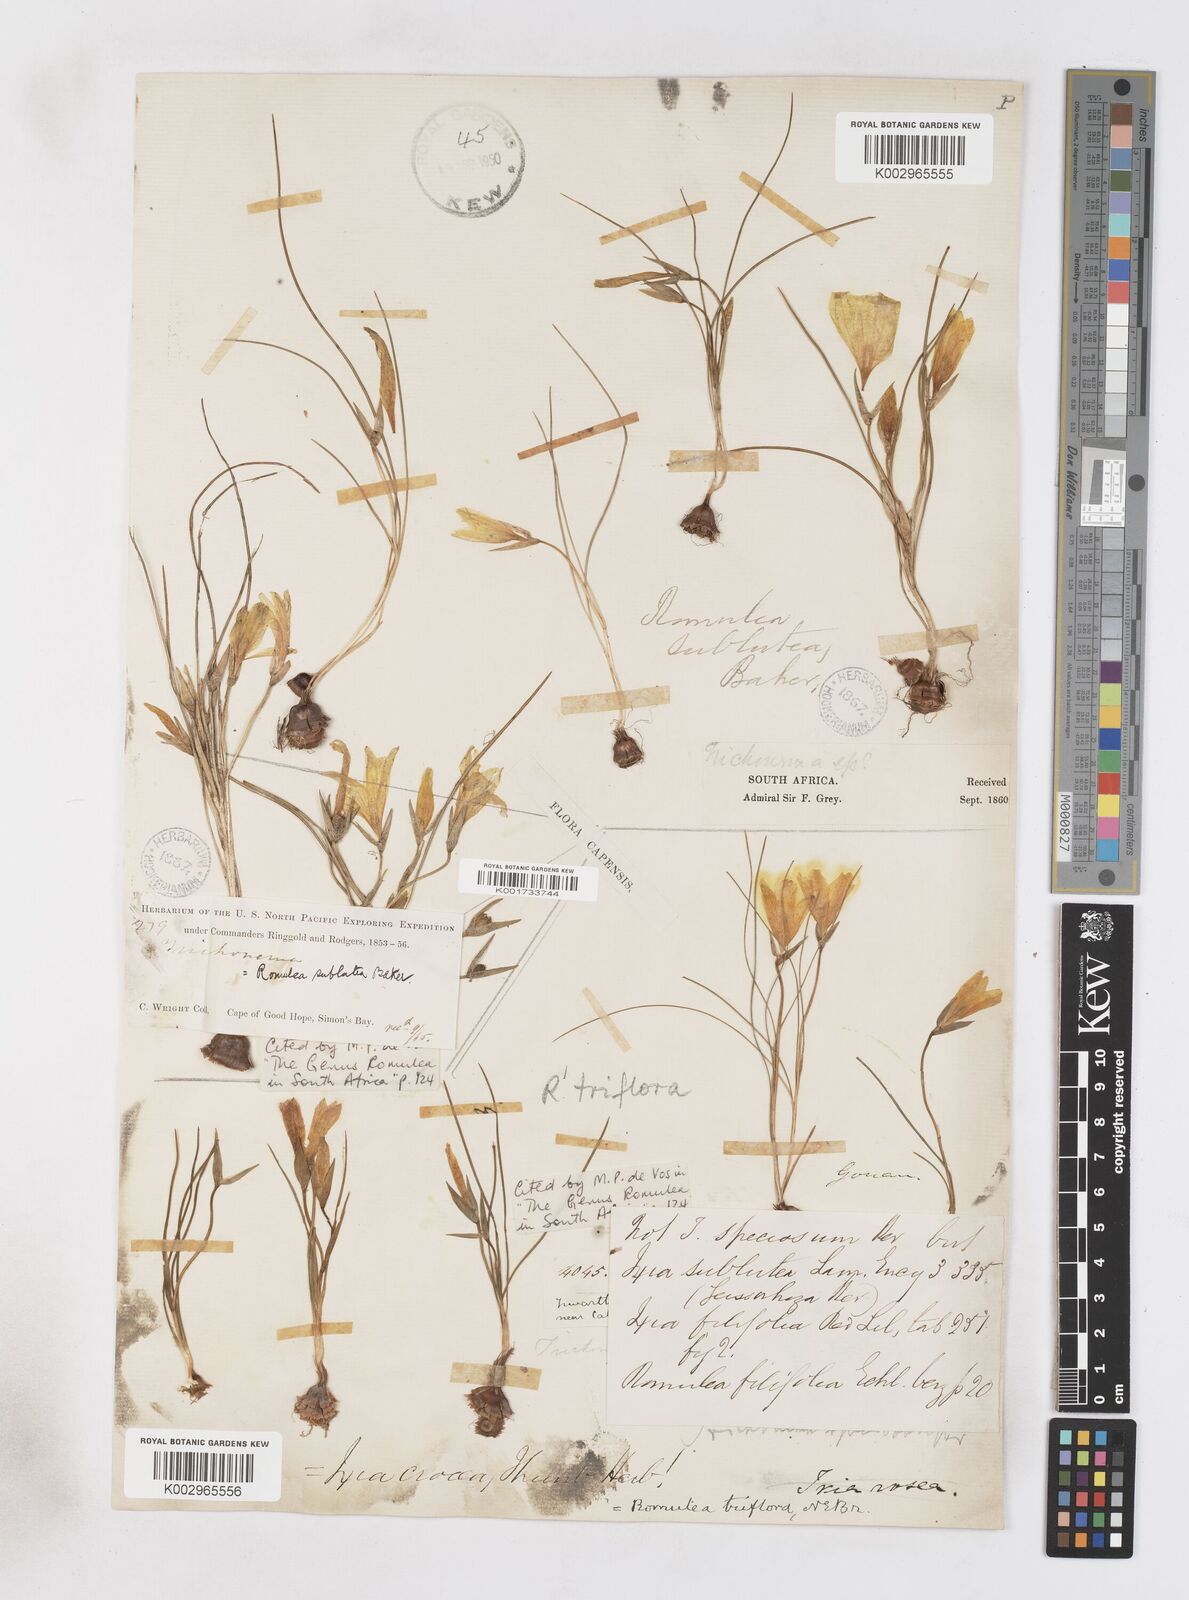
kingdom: Plantae
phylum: Tracheophyta
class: Liliopsida
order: Asparagales
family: Iridaceae
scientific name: Iridaceae
